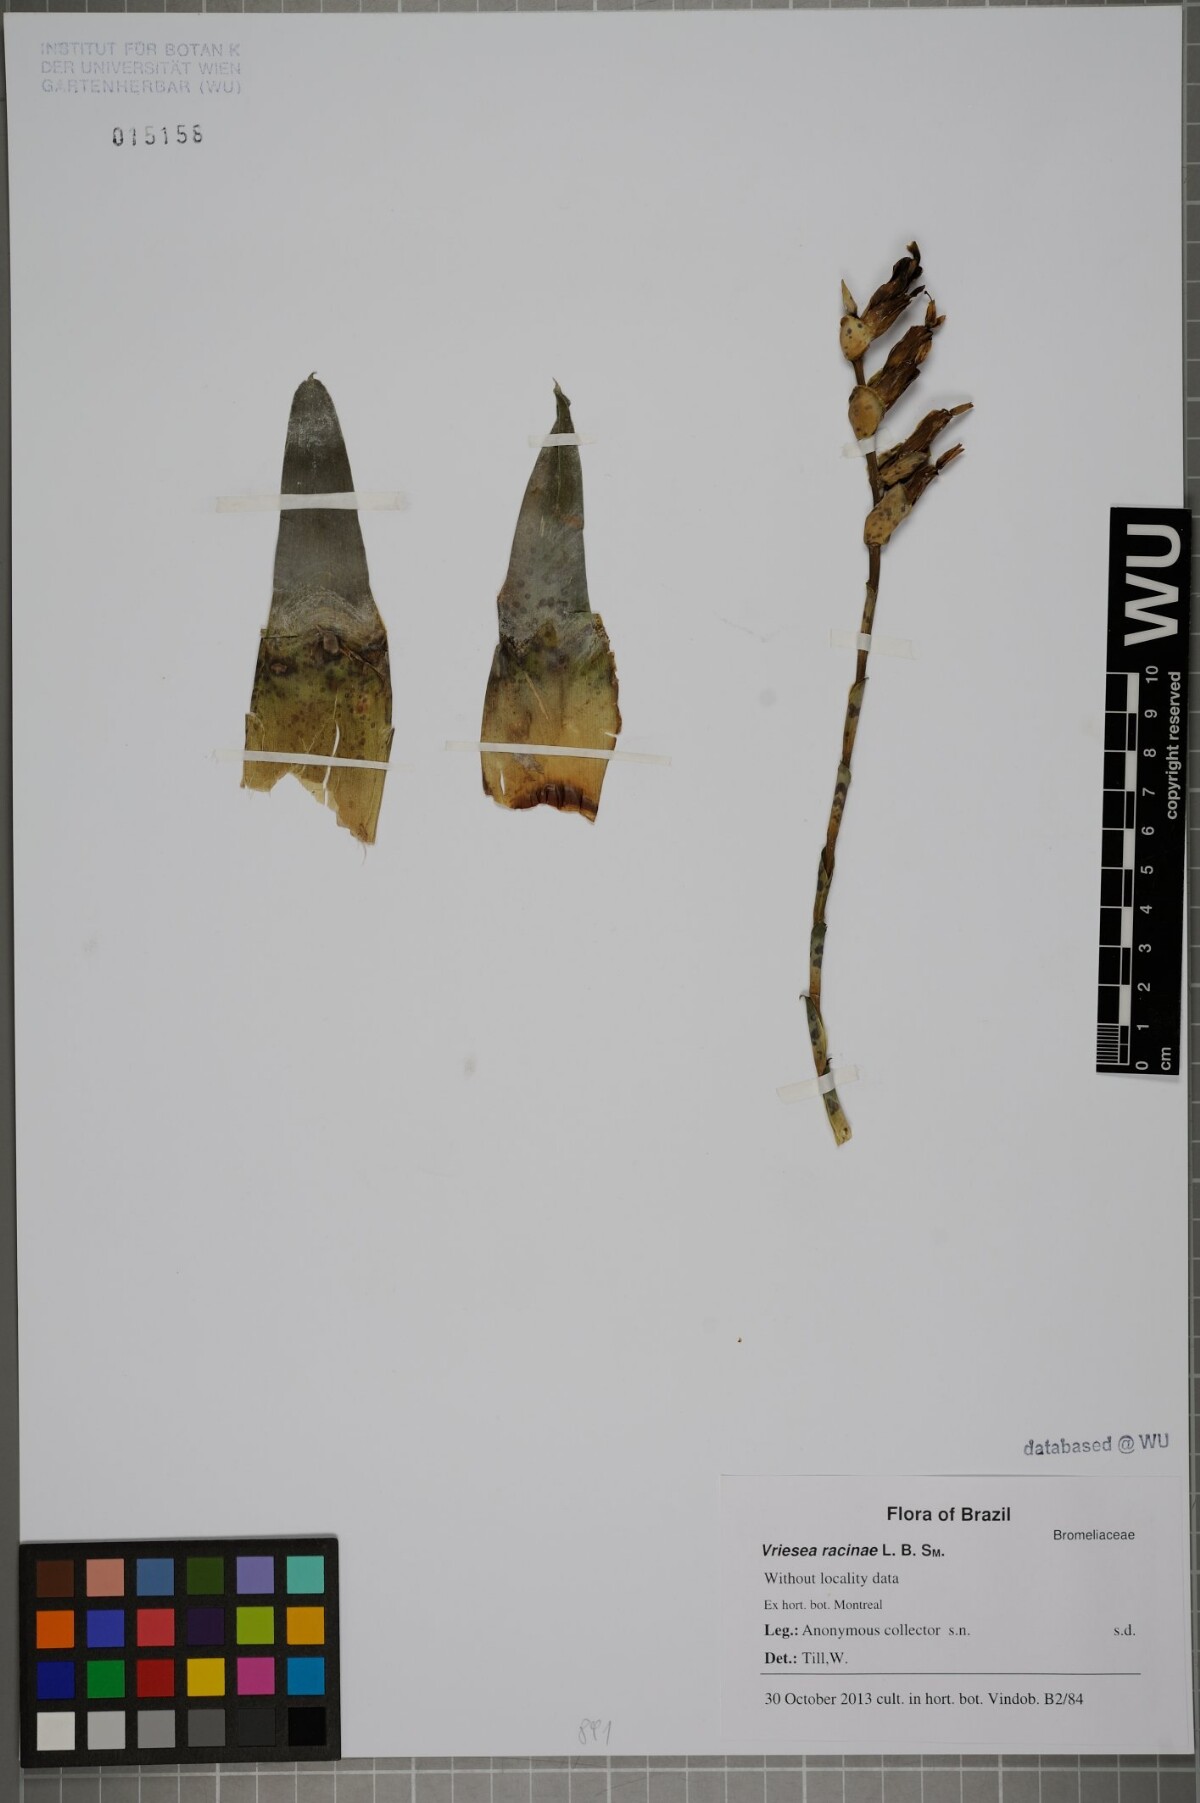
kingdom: Plantae
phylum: Tracheophyta
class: Liliopsida
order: Poales
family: Bromeliaceae
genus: Vriesea
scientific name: Vriesea racinae
